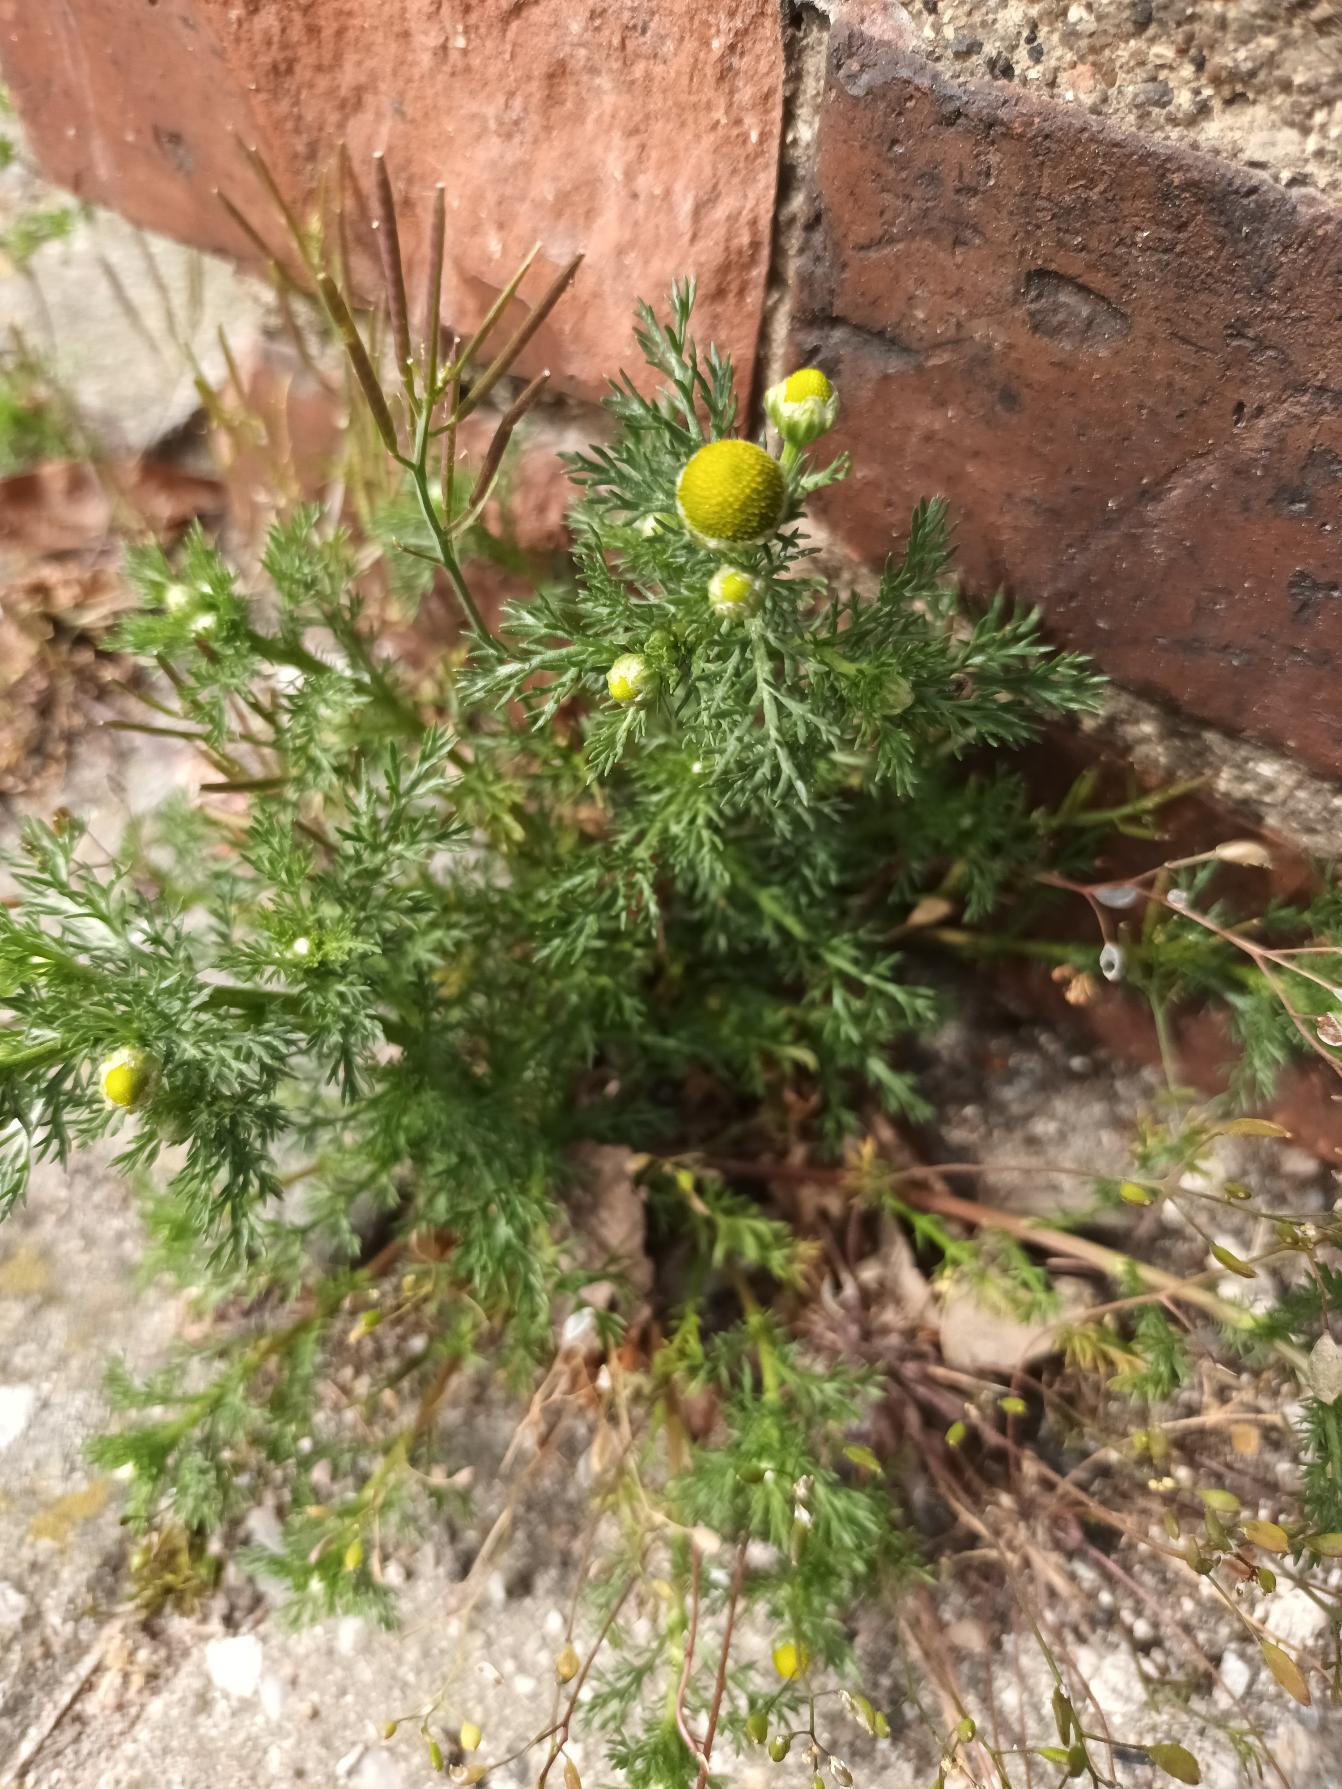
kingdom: Plantae
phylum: Tracheophyta
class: Magnoliopsida
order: Asterales
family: Asteraceae
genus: Matricaria
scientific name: Matricaria discoidea
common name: Skive-kamille
